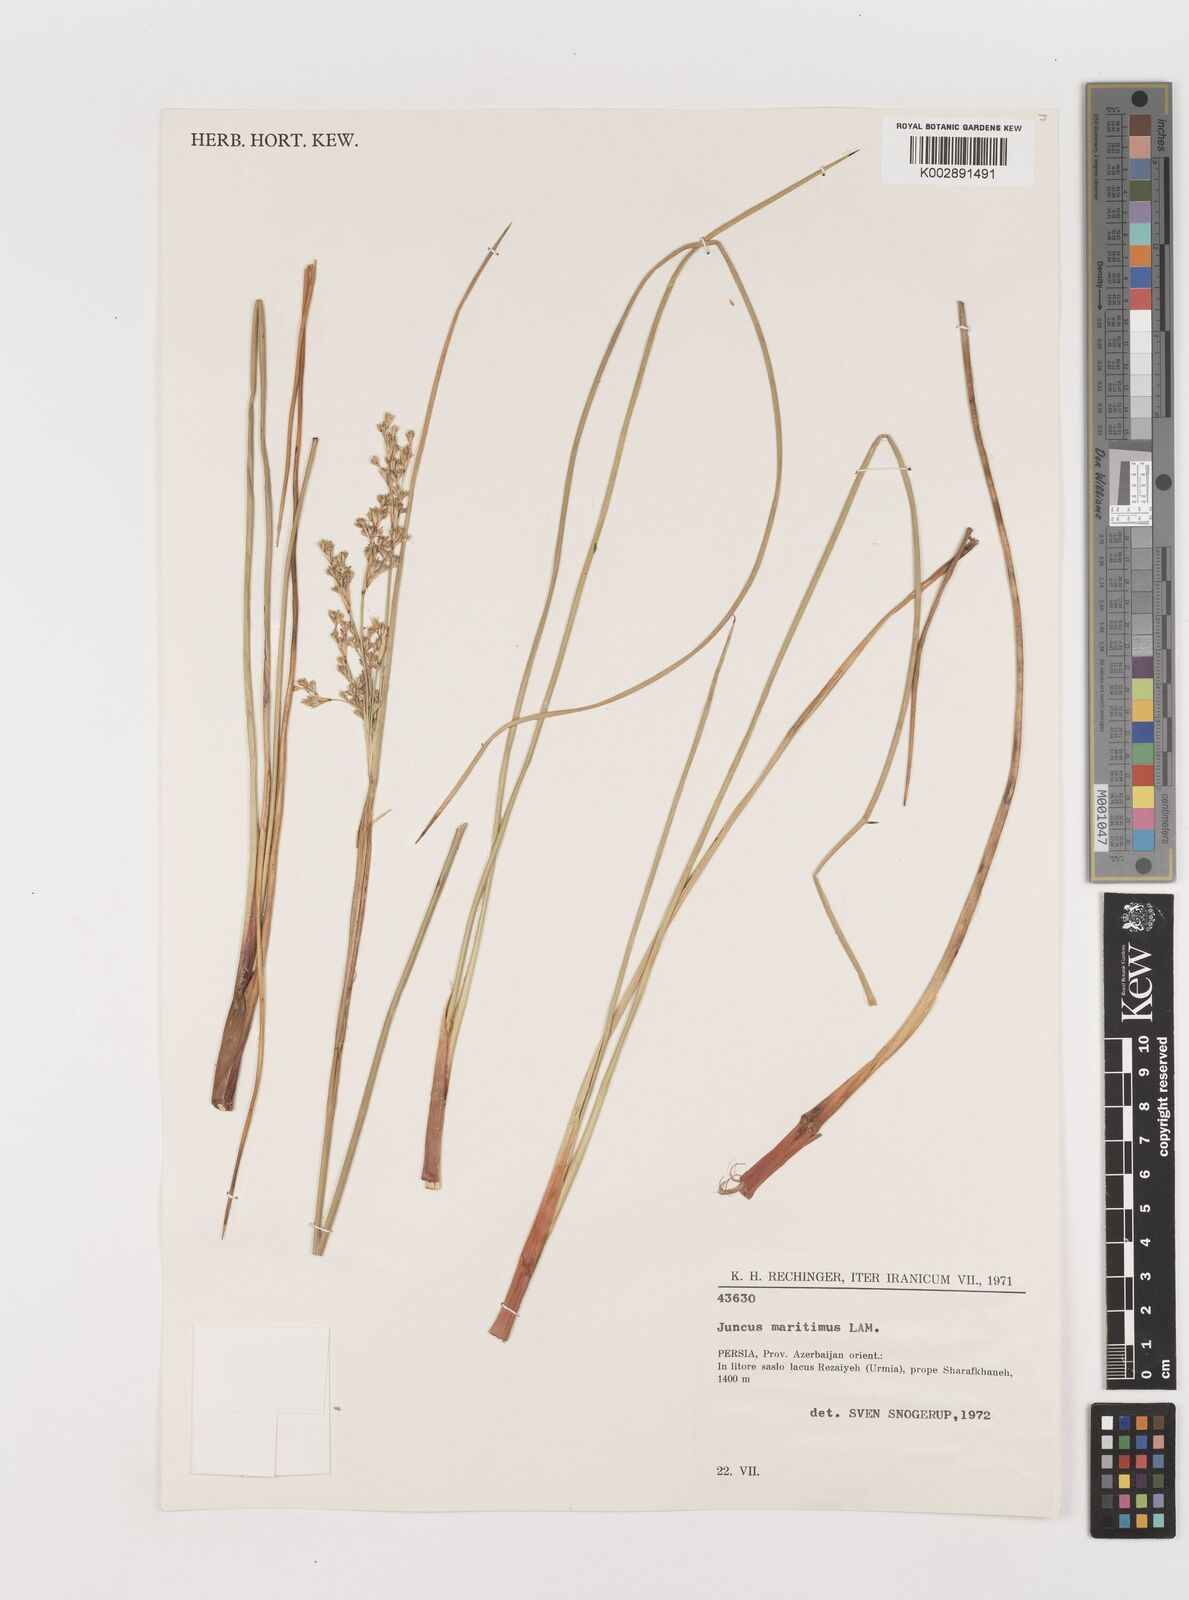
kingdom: Plantae
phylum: Tracheophyta
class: Liliopsida
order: Poales
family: Juncaceae
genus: Juncus
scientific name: Juncus maritimus
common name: Sea rush
